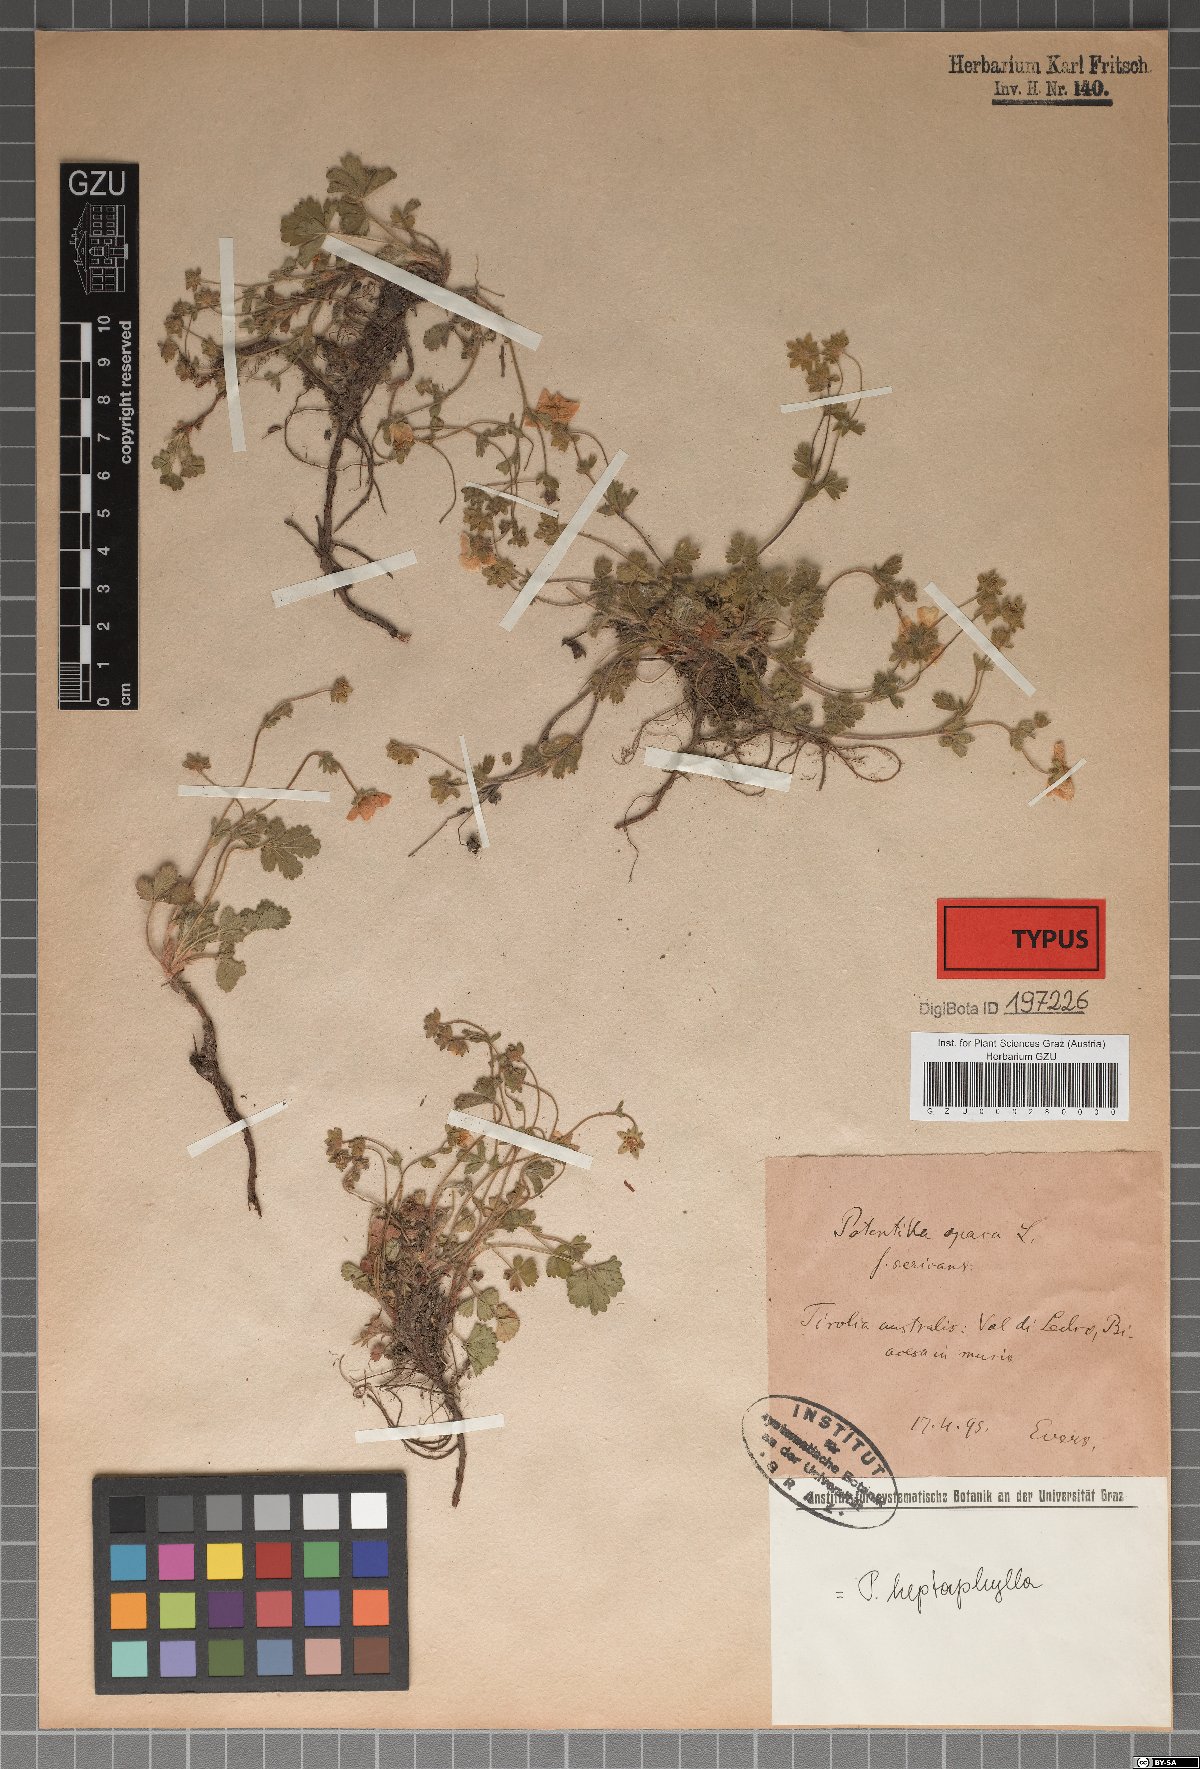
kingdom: Plantae
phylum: Tracheophyta
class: Magnoliopsida
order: Rosales
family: Rosaceae
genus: Potentilla
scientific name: Potentilla
